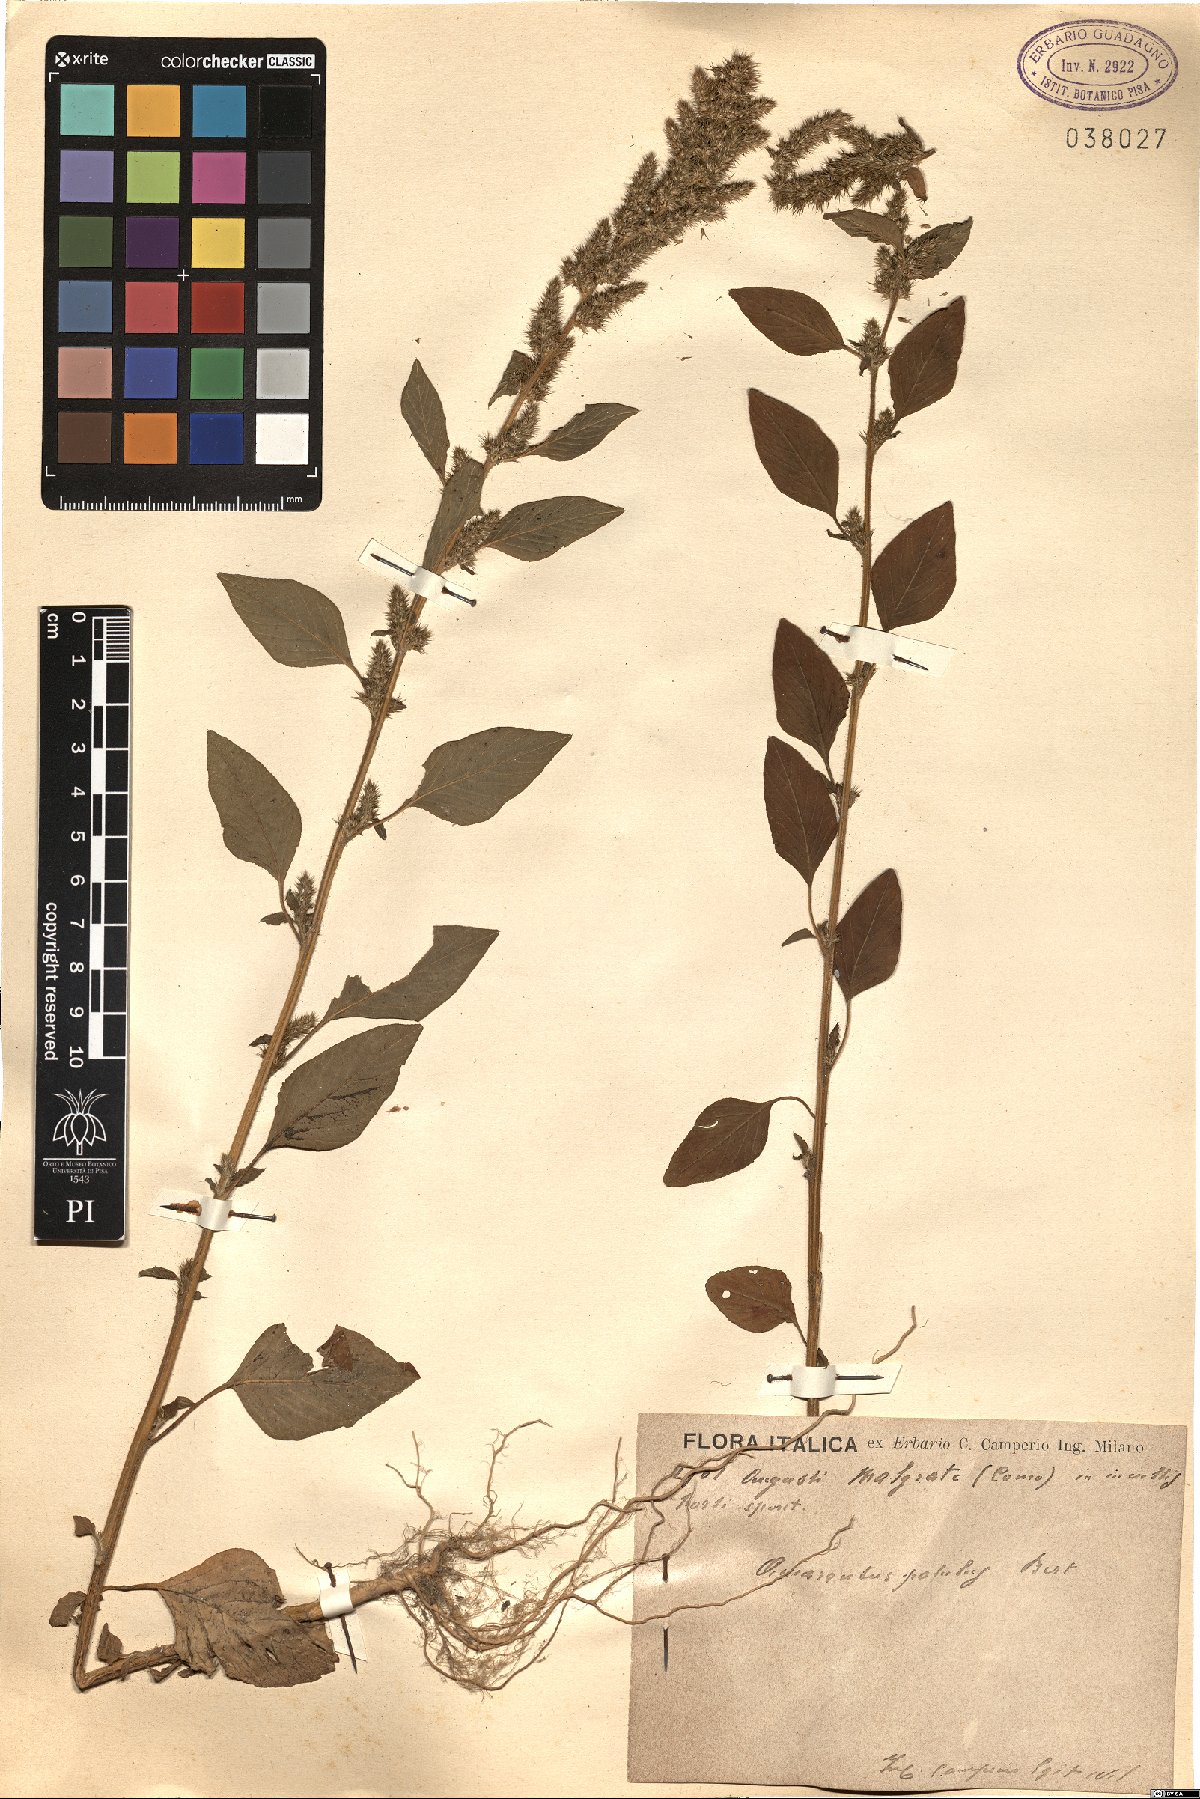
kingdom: Plantae
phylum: Tracheophyta
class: Magnoliopsida
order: Caryophyllales
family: Amaranthaceae
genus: Amaranthus
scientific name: Amaranthus hybridus
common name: Green amaranth
